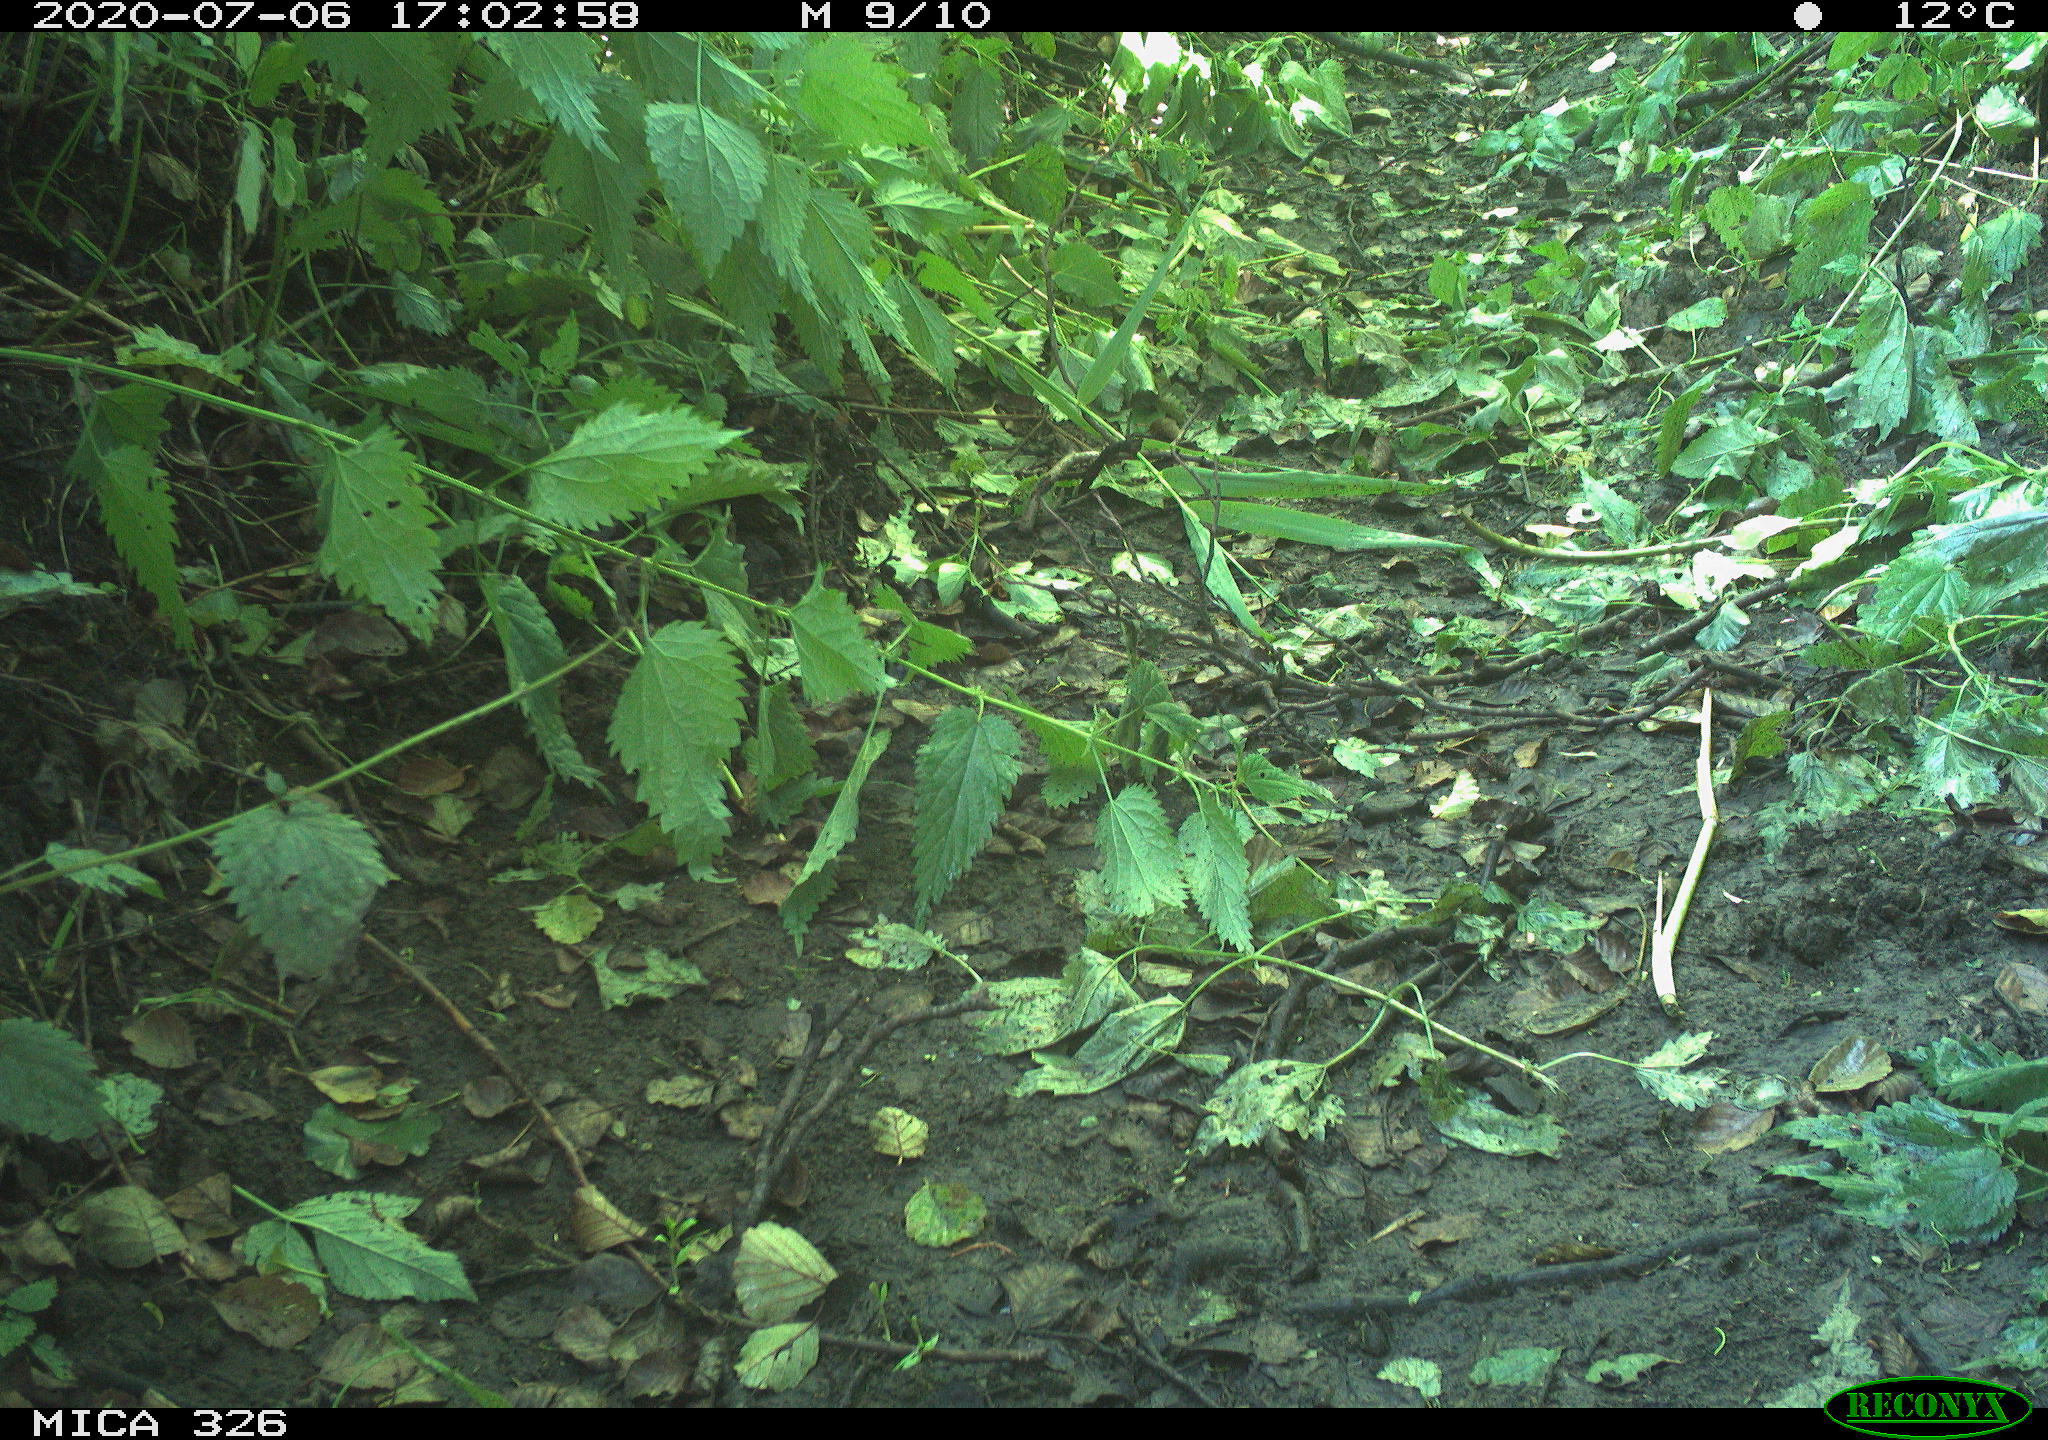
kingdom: Animalia
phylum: Chordata
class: Aves
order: Passeriformes
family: Muscicapidae
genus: Erithacus
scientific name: Erithacus rubecula
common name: European robin
